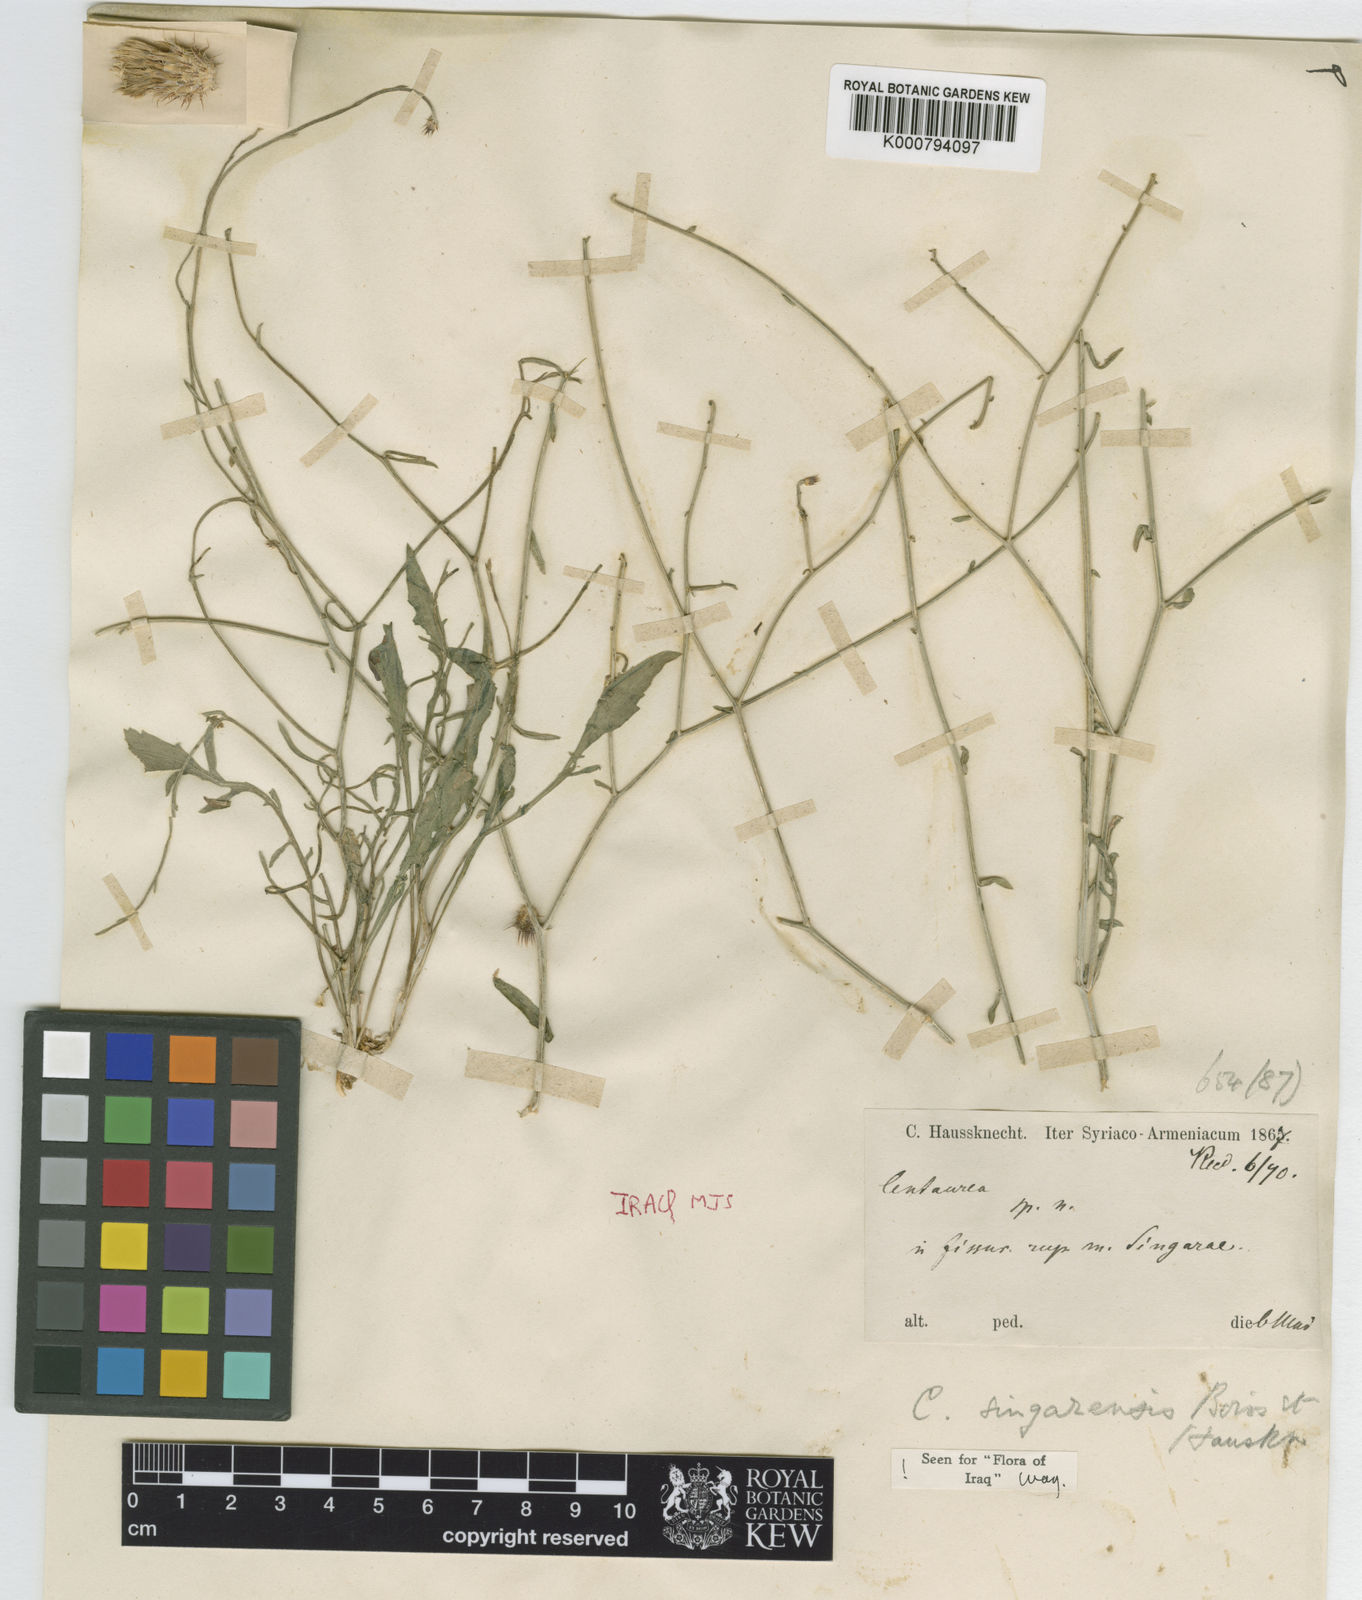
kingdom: Plantae
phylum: Tracheophyta
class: Magnoliopsida
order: Asterales
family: Asteraceae
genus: Centaurea
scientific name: Centaurea singarensis
